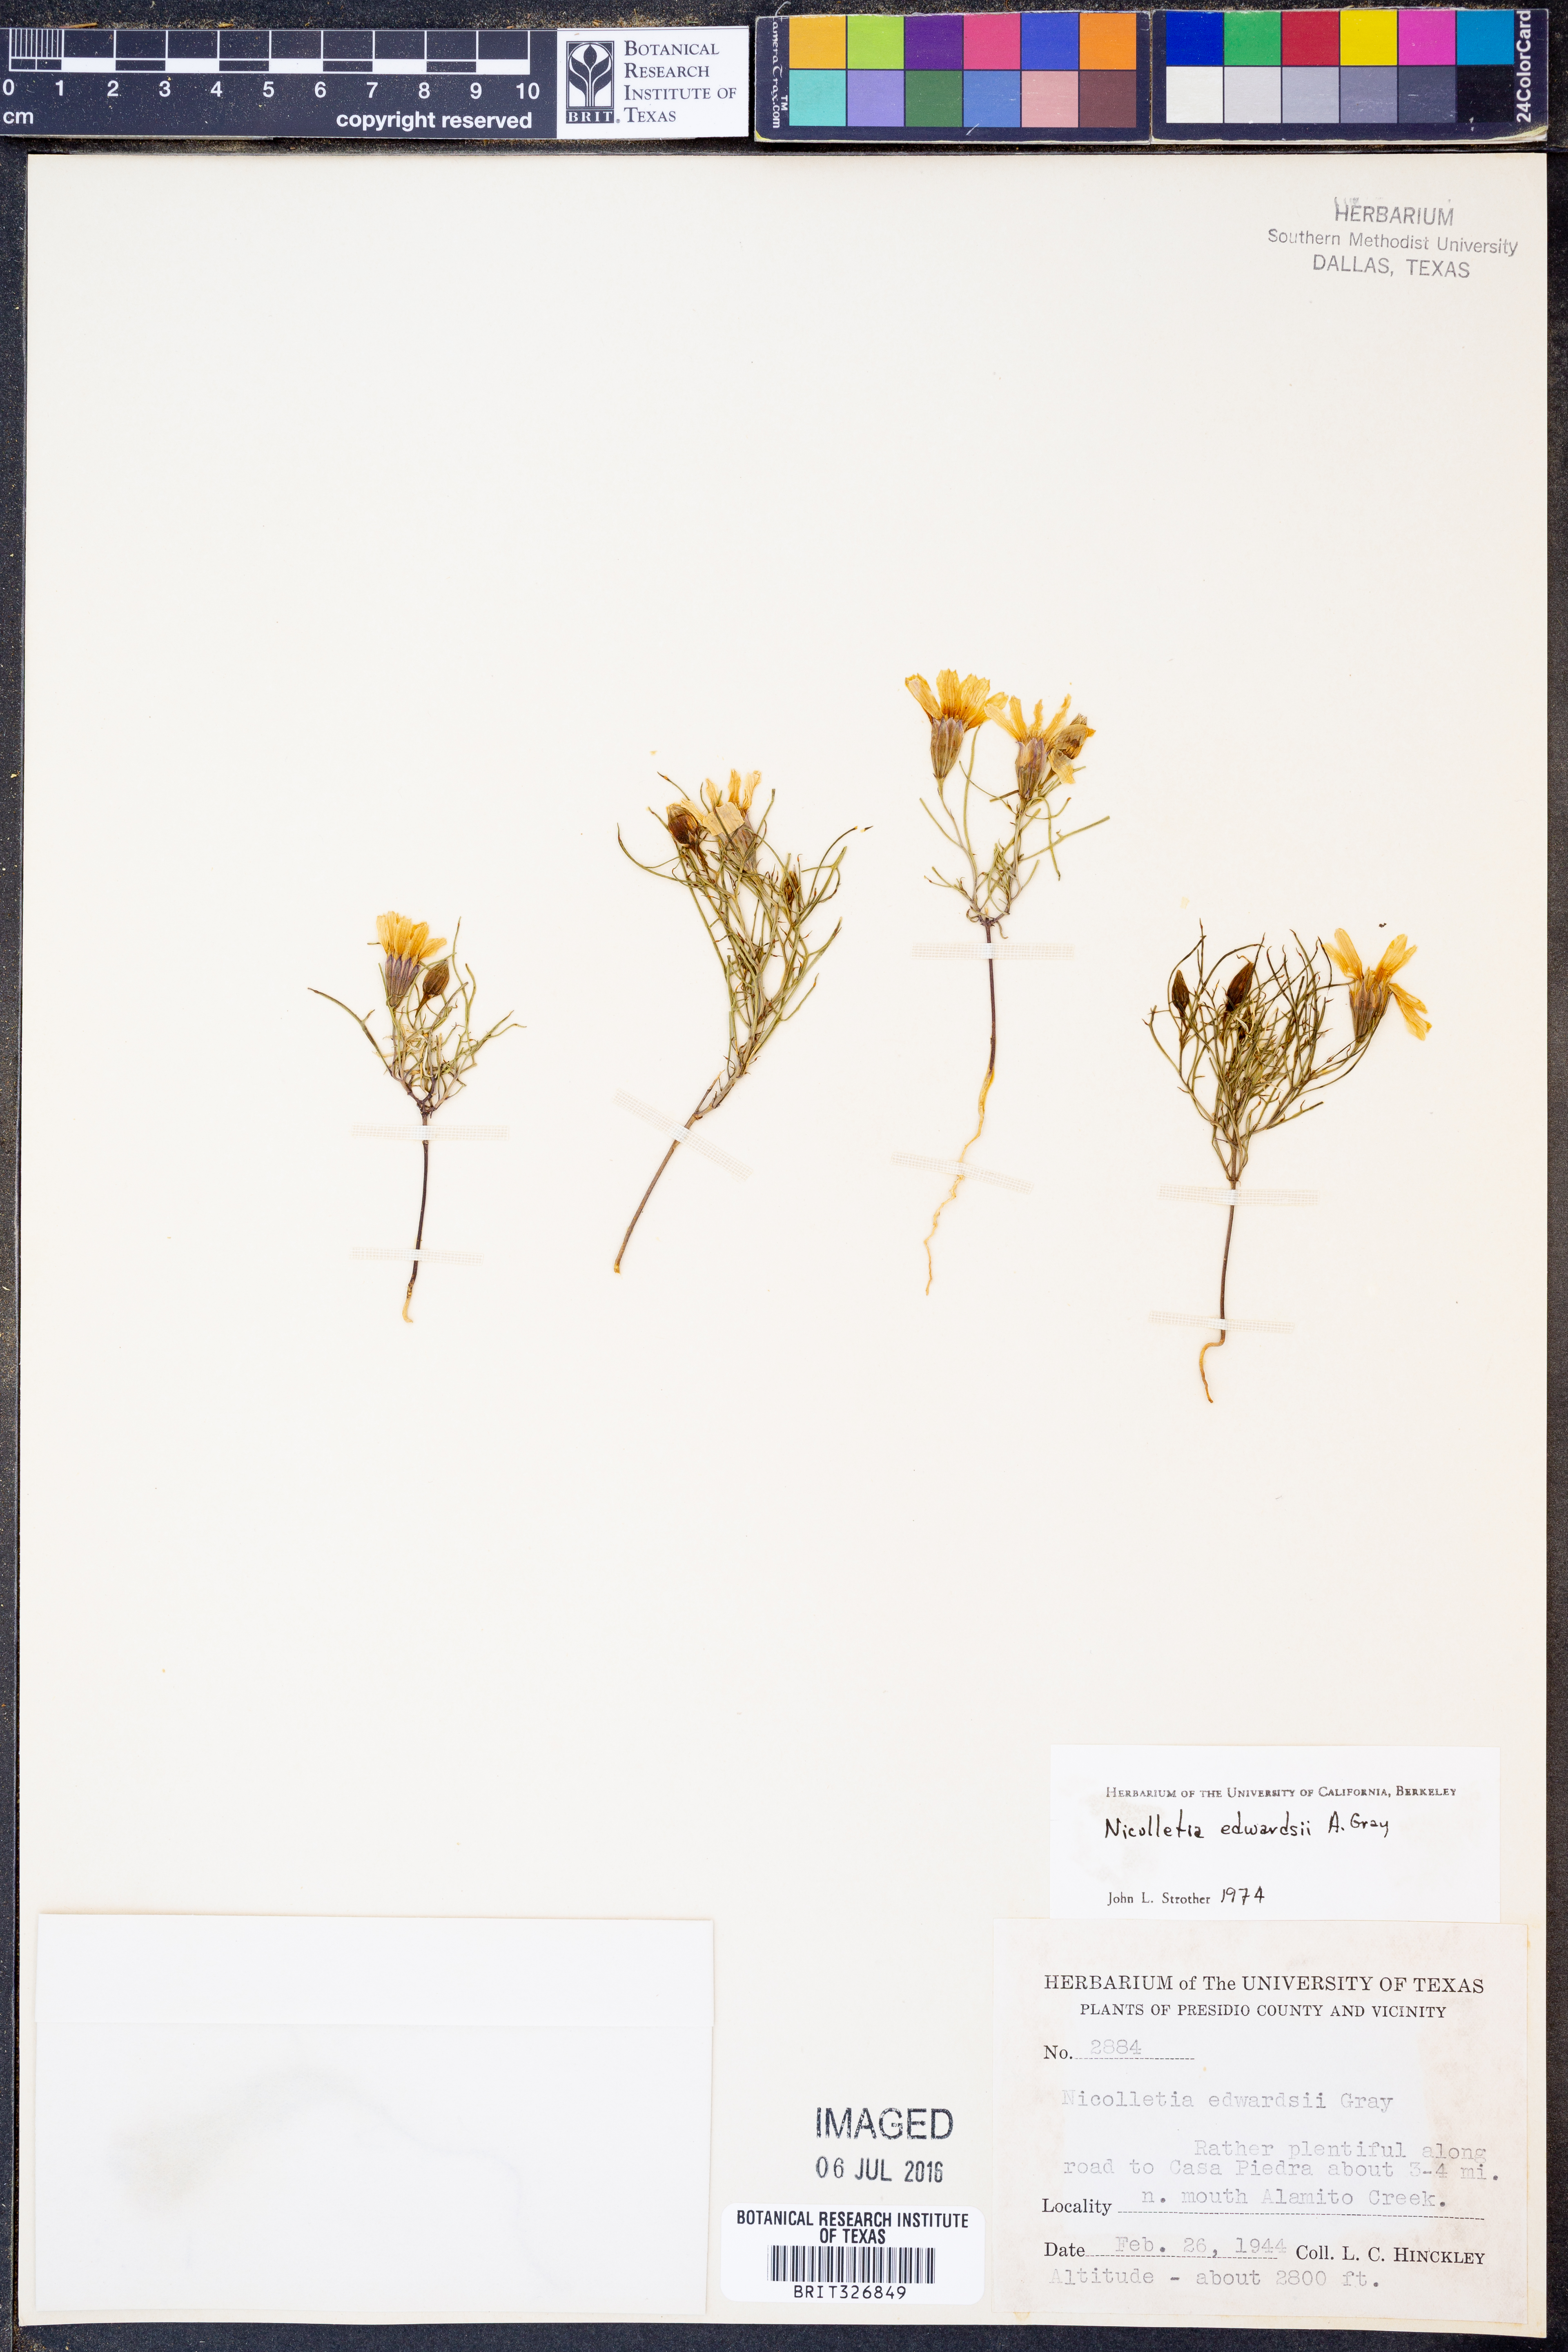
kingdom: Plantae
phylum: Tracheophyta
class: Magnoliopsida
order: Asterales
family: Asteraceae
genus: Nicolletia
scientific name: Nicolletia edwardsii
